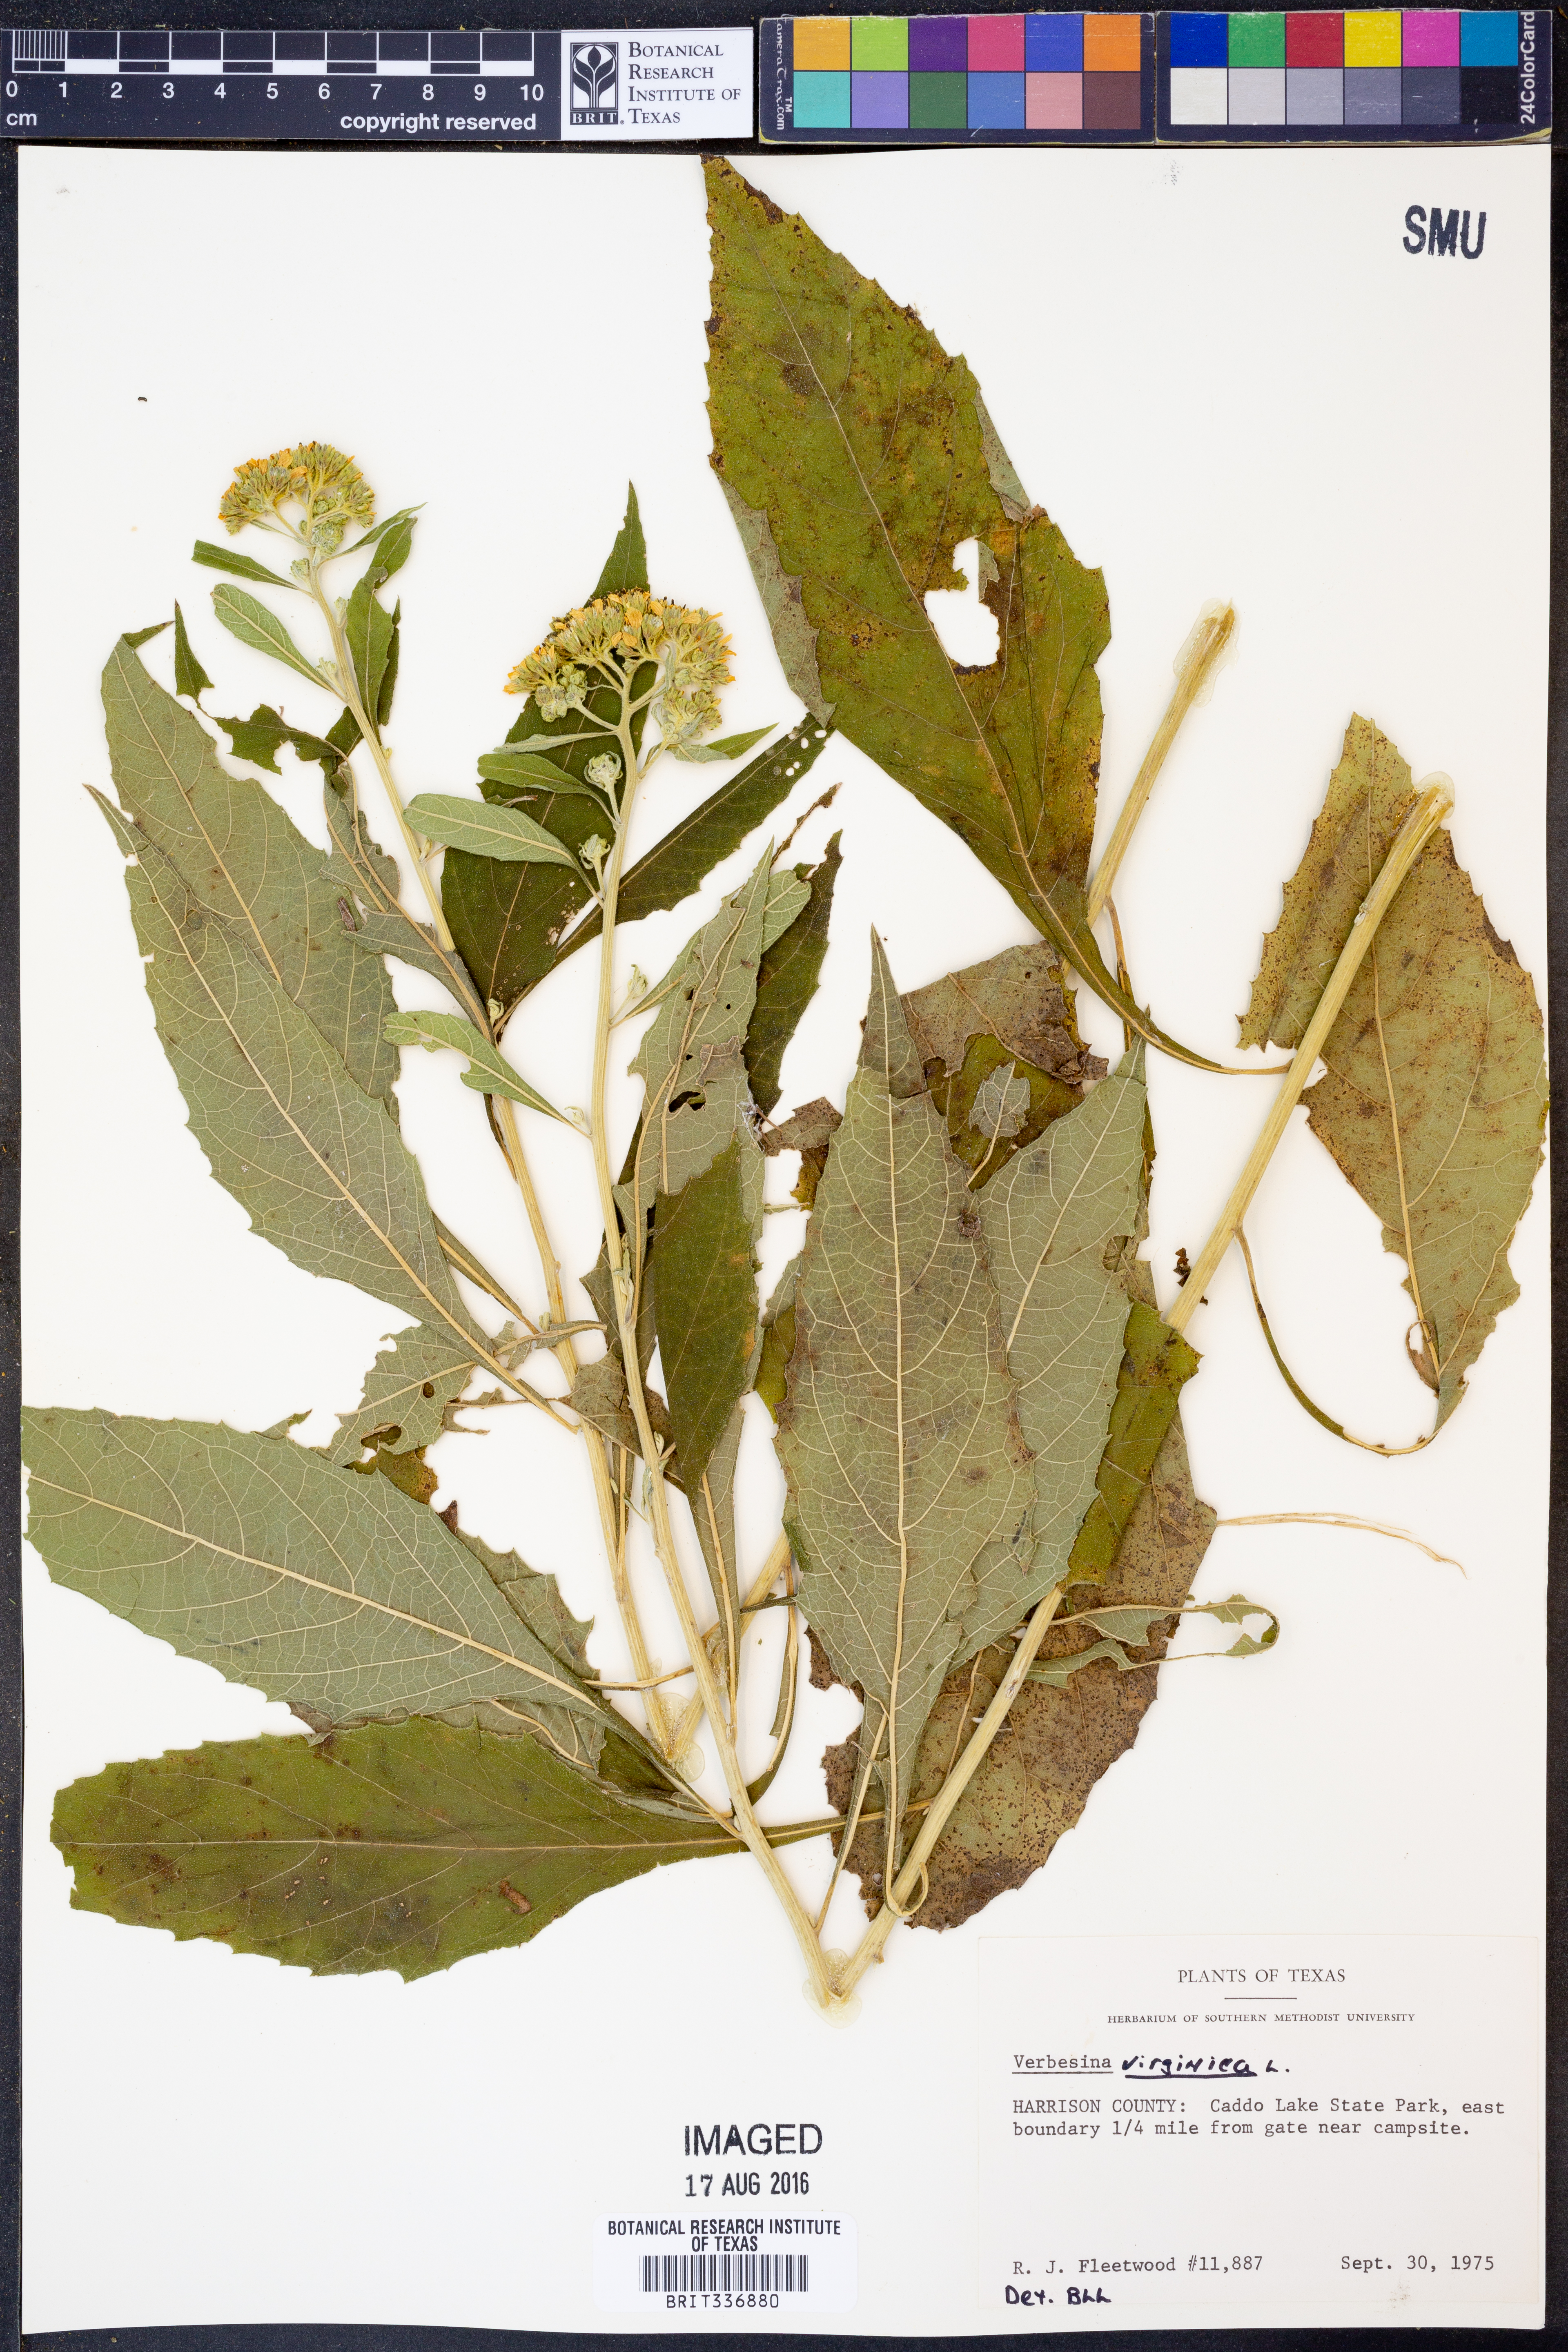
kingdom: Plantae
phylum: Tracheophyta
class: Magnoliopsida
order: Asterales
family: Asteraceae
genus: Verbesina
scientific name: Verbesina virginica
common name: Frostweed
